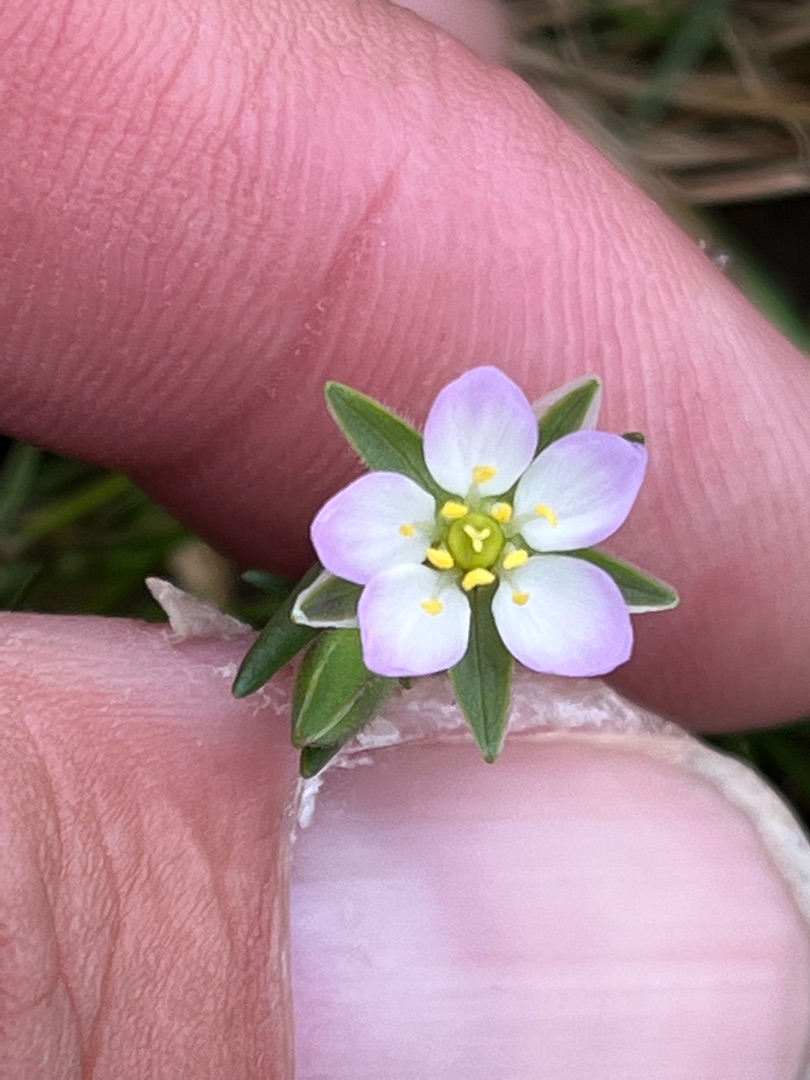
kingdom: Plantae
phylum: Tracheophyta
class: Magnoliopsida
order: Caryophyllales
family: Caryophyllaceae
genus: Spergularia
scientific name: Spergularia
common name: Hindeknæslægten
